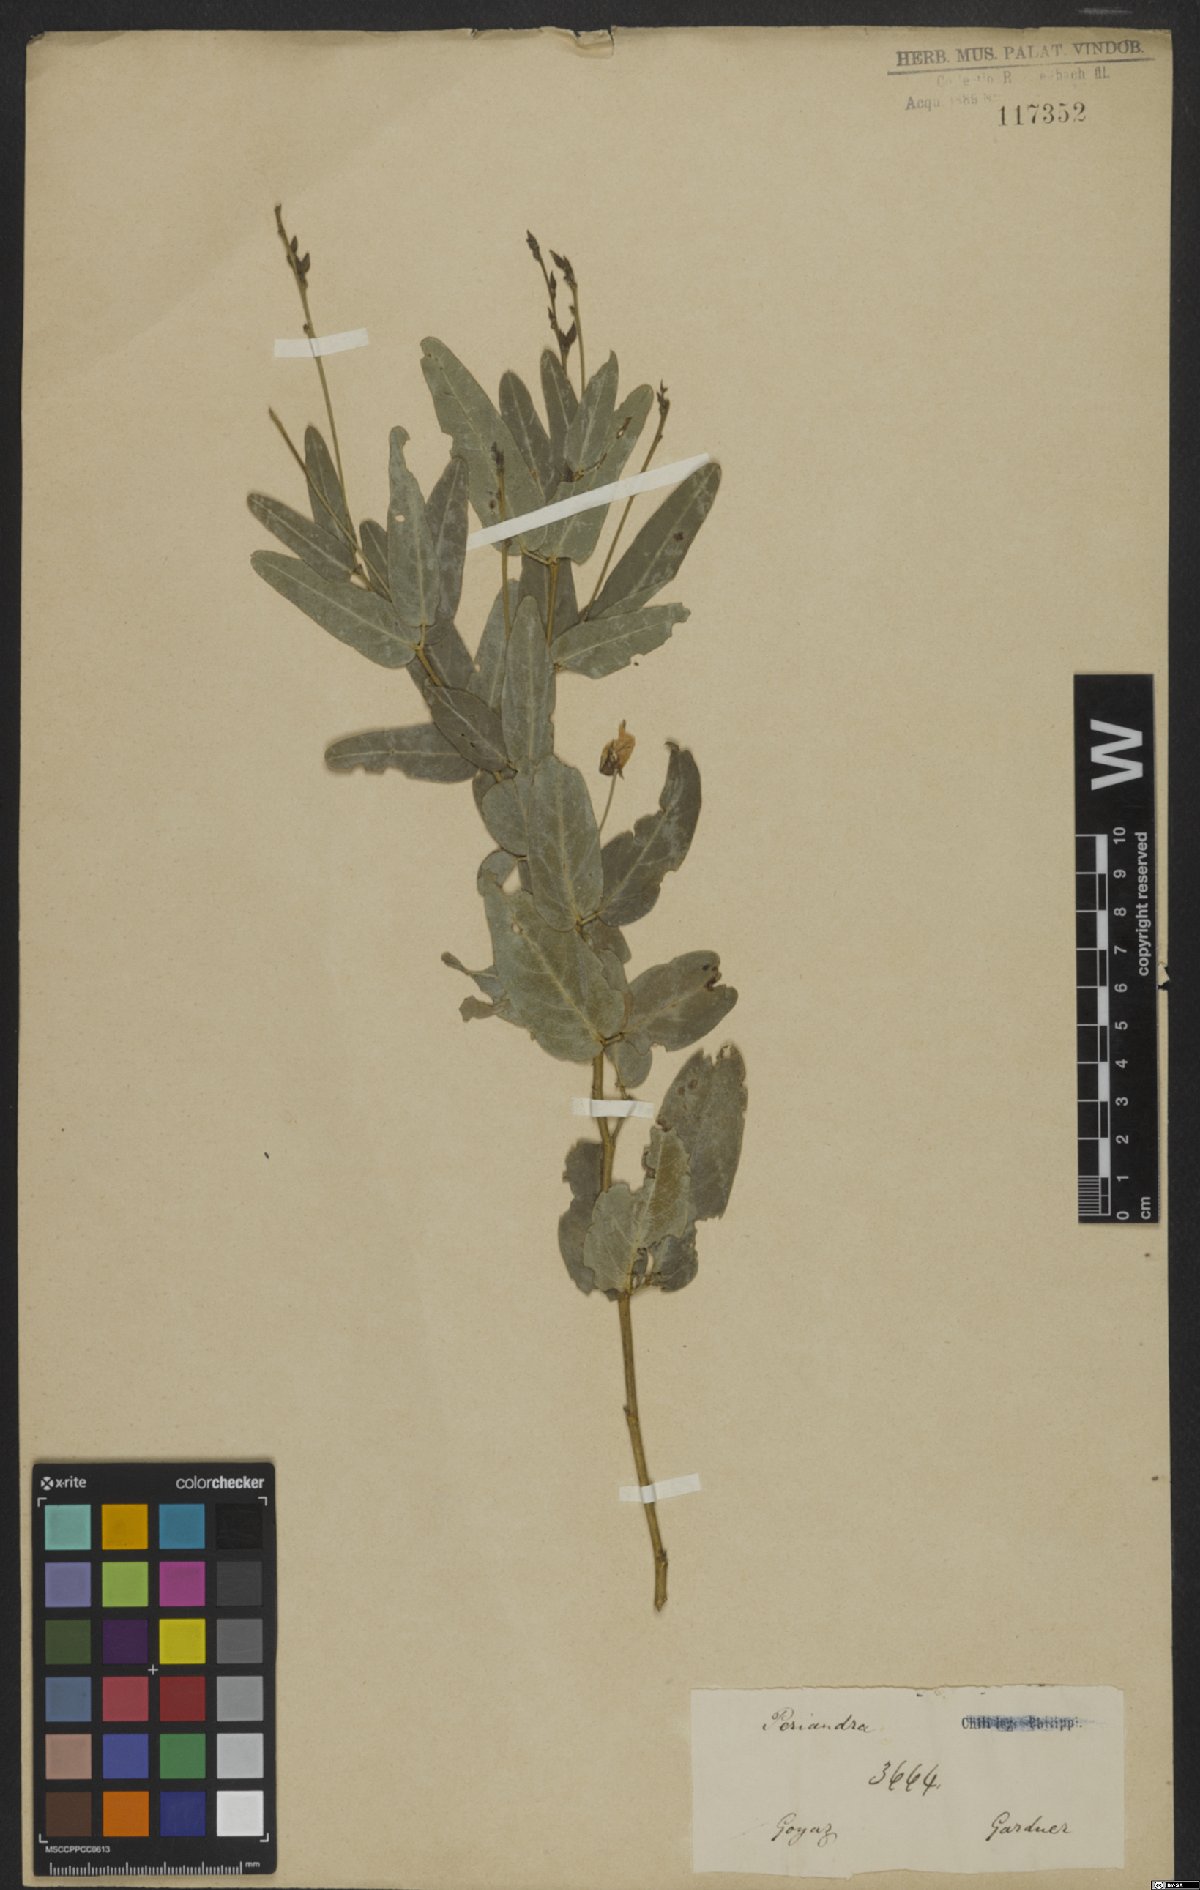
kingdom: Plantae
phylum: Tracheophyta
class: Magnoliopsida
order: Fabales
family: Fabaceae
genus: Periandra
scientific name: Periandra
